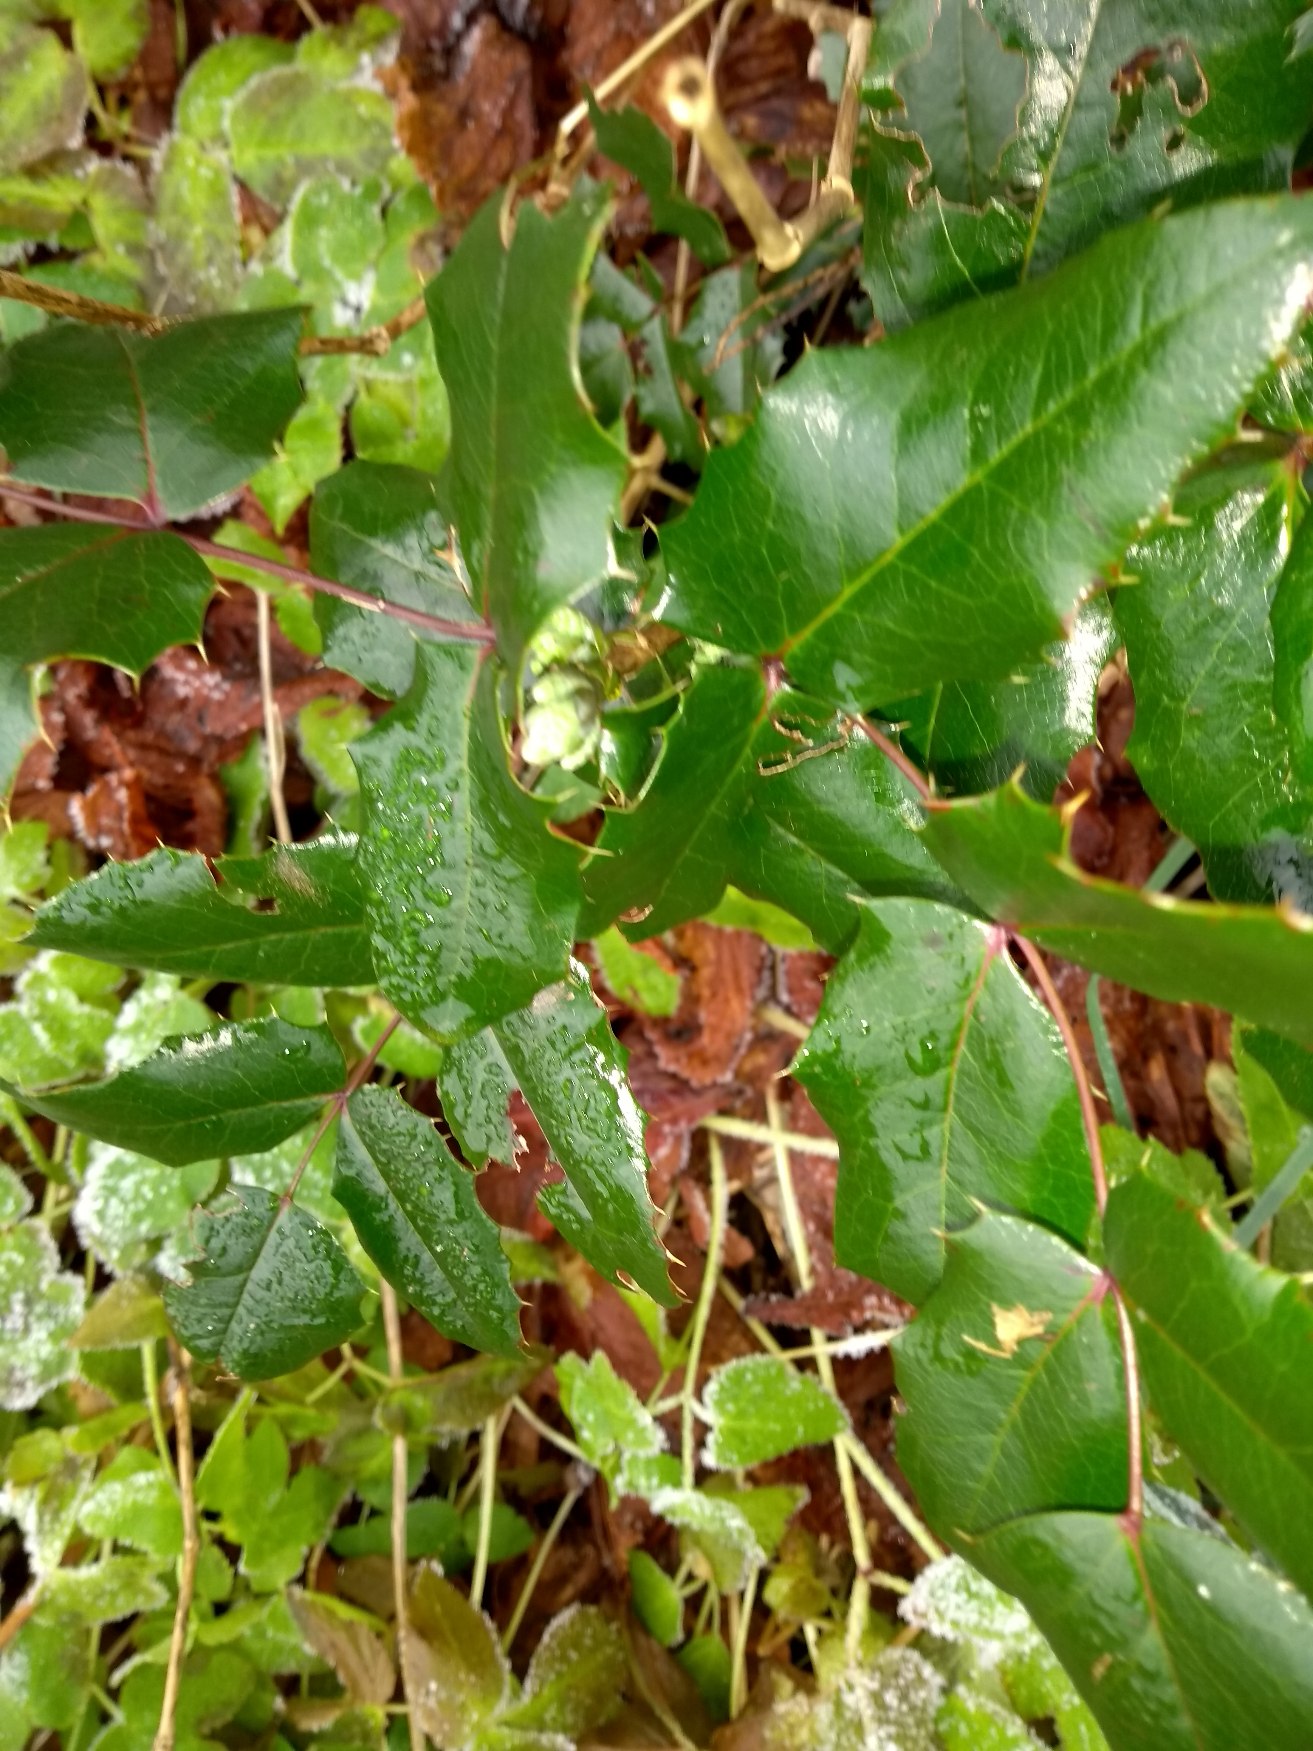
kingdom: Plantae
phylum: Tracheophyta
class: Magnoliopsida
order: Ranunculales
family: Berberidaceae
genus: Mahonia
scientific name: Mahonia aquifolium
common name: Almindelig mahonie
